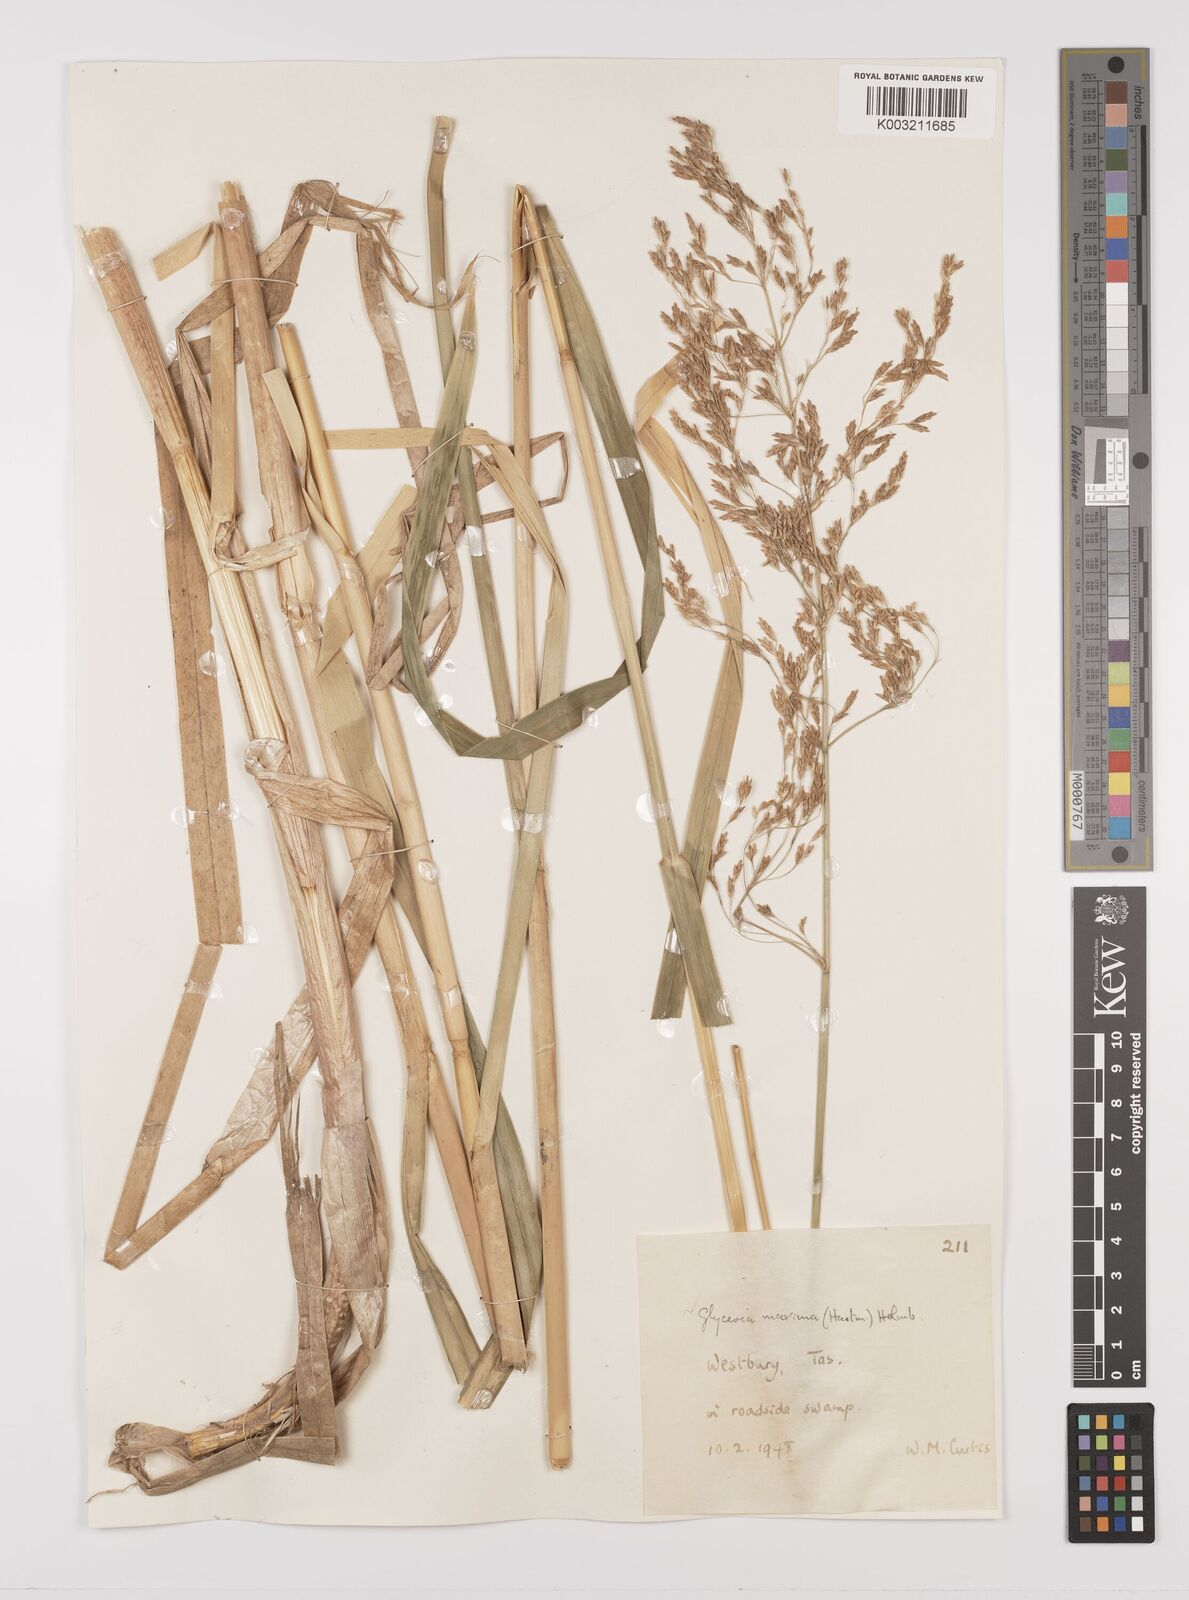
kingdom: Plantae
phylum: Tracheophyta
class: Liliopsida
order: Poales
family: Poaceae
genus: Glyceria
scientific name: Glyceria maxima
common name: Reed mannagrass
